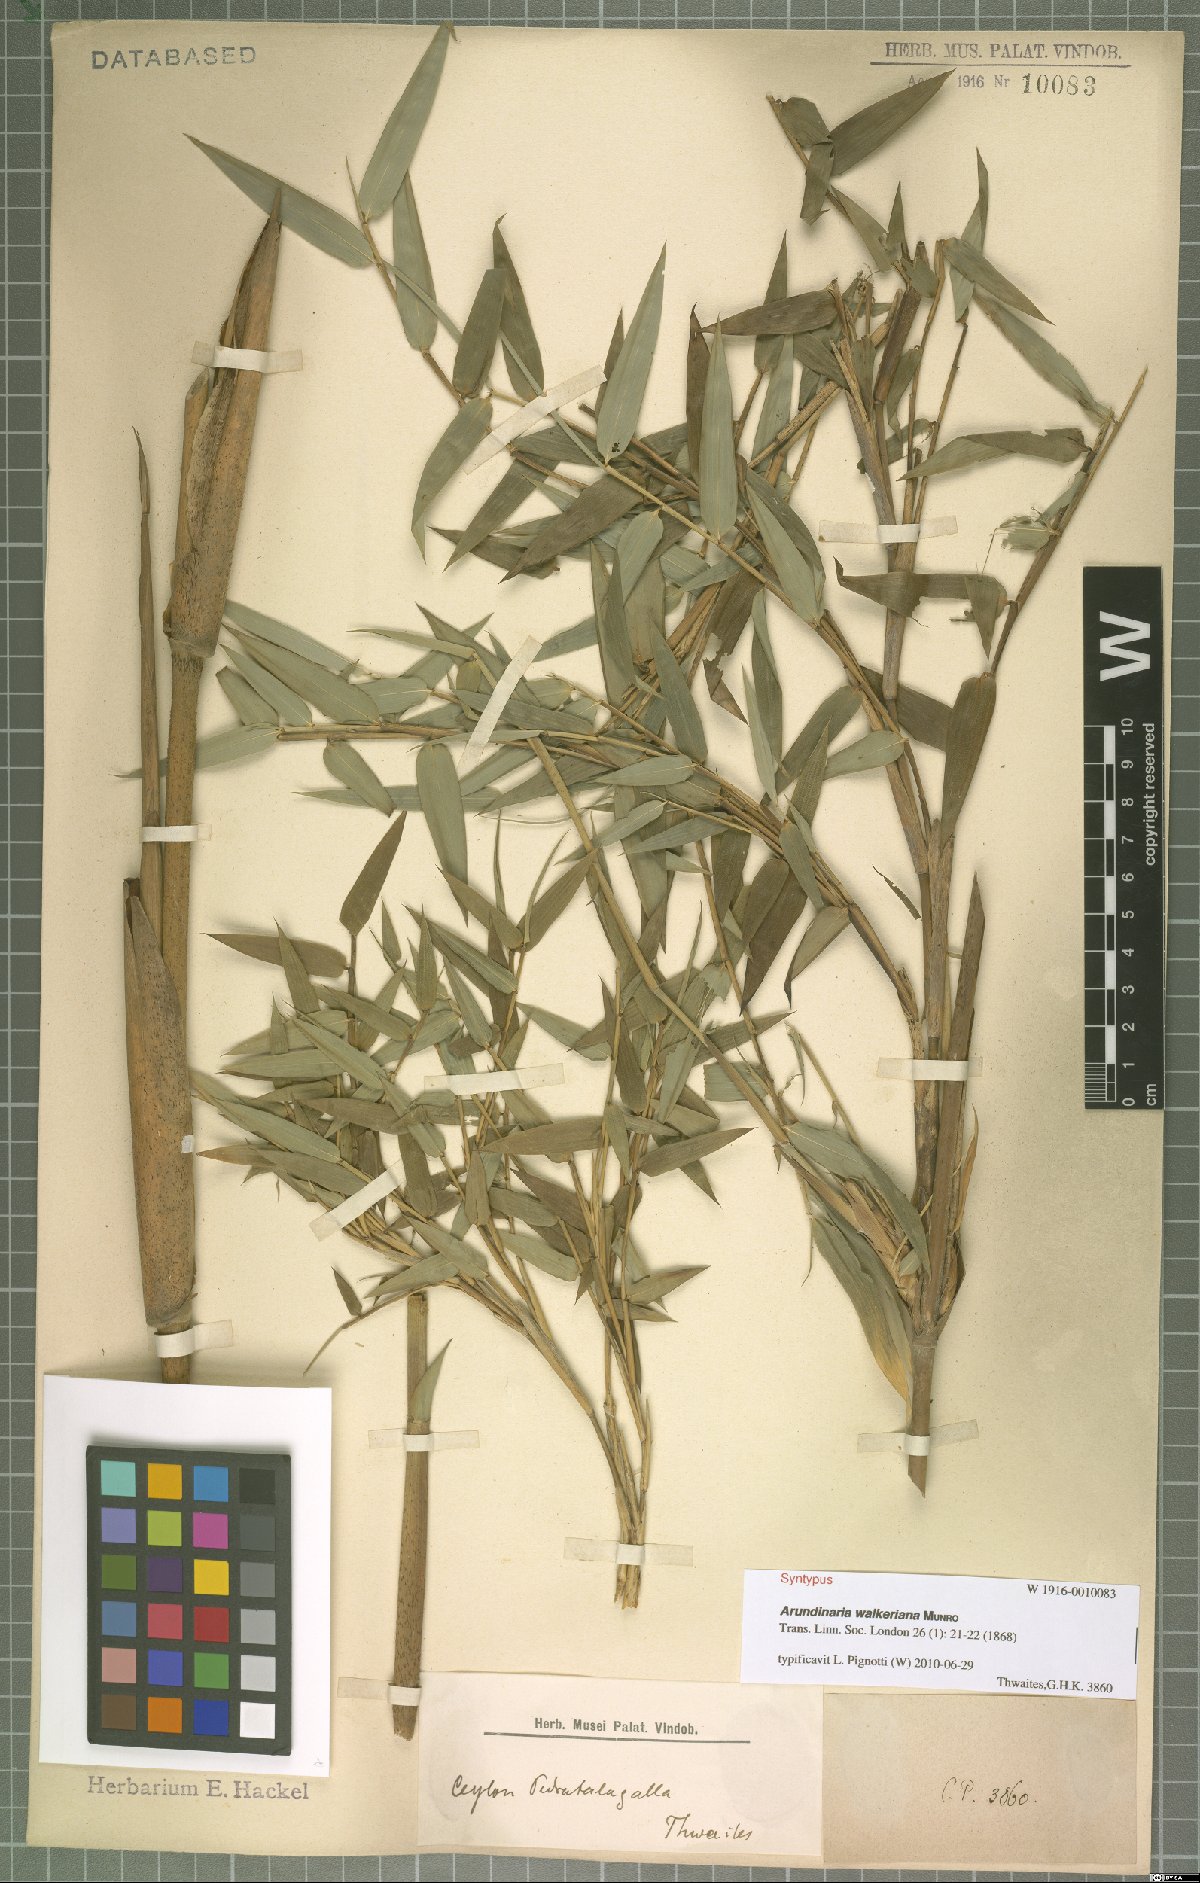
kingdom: Plantae
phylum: Tracheophyta
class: Liliopsida
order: Poales
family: Poaceae
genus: Kuruna
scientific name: Kuruna walkeriana
